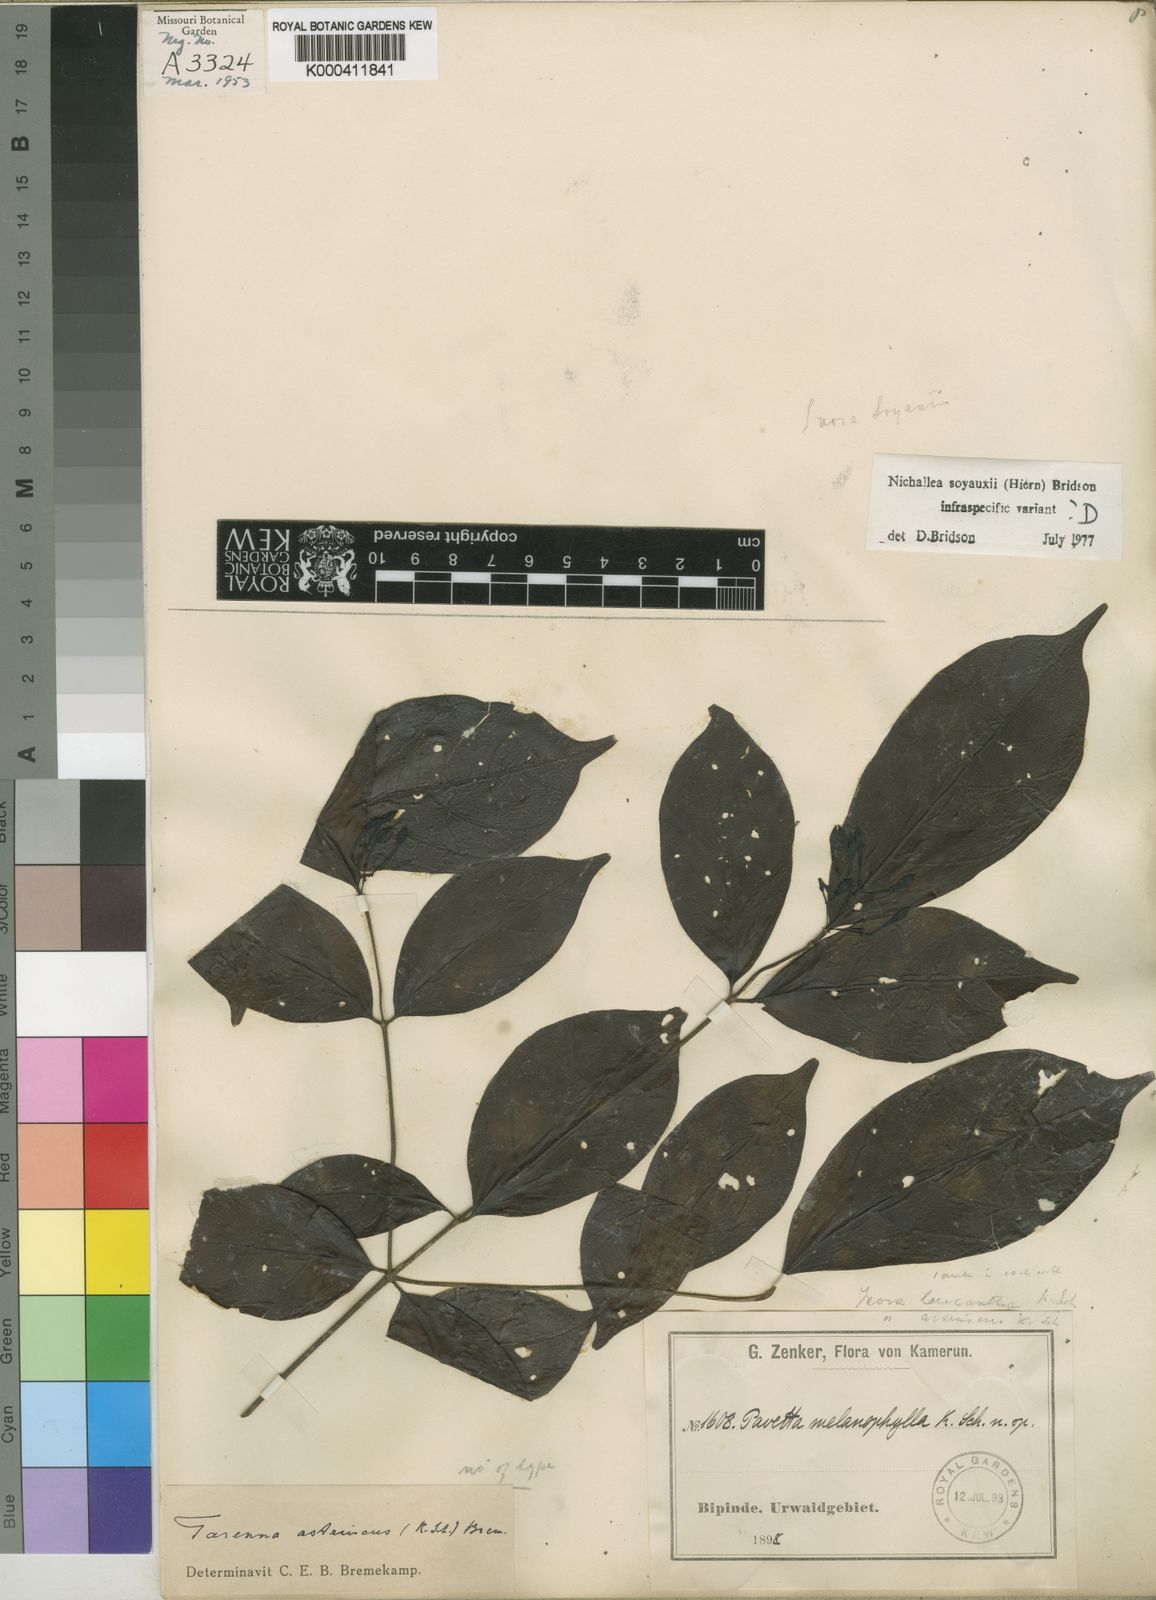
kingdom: Plantae
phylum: Tracheophyta
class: Magnoliopsida
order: Gentianales
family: Rubiaceae
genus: Nichallea
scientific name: Nichallea soyauxii
